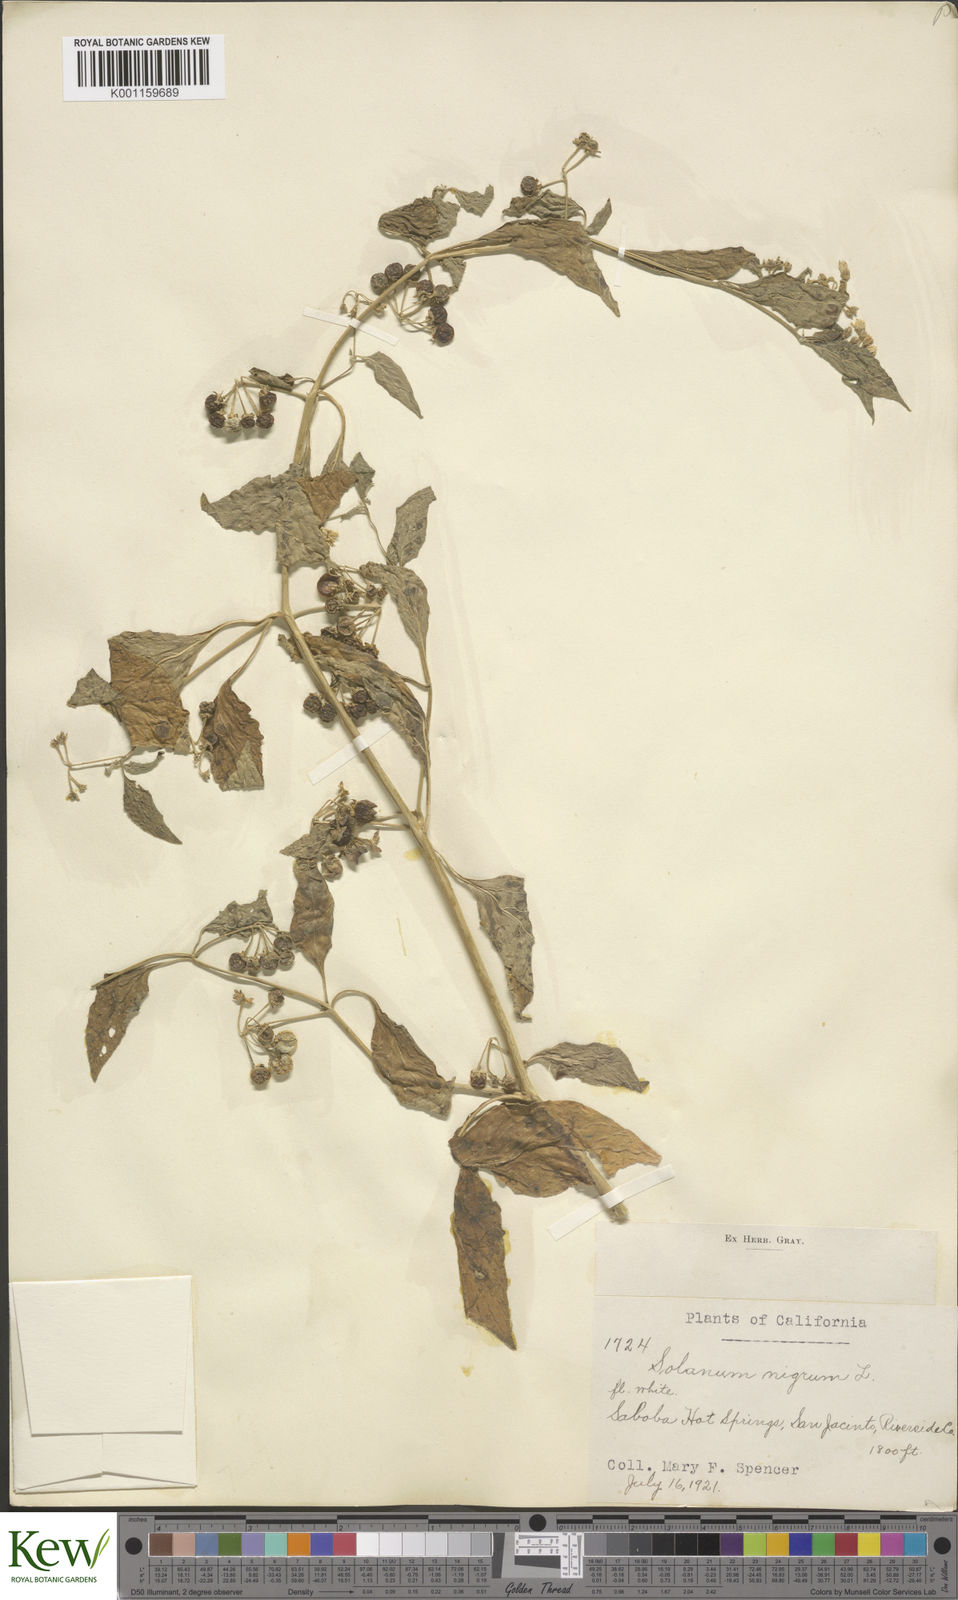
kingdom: Plantae
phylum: Tracheophyta
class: Magnoliopsida
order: Solanales
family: Solanaceae
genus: Solanum
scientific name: Solanum douglasii
